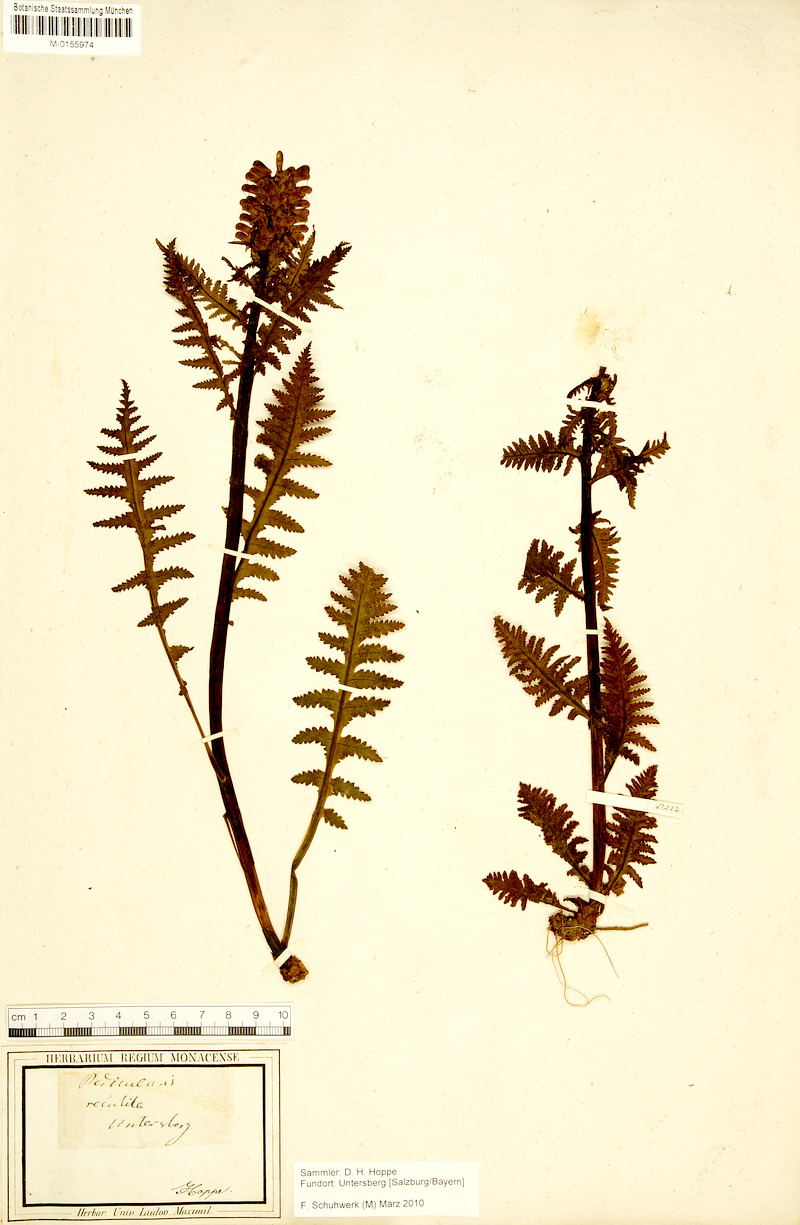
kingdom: Plantae
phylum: Tracheophyta
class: Magnoliopsida
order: Lamiales
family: Orobanchaceae
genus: Pedicularis
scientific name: Pedicularis recutita
